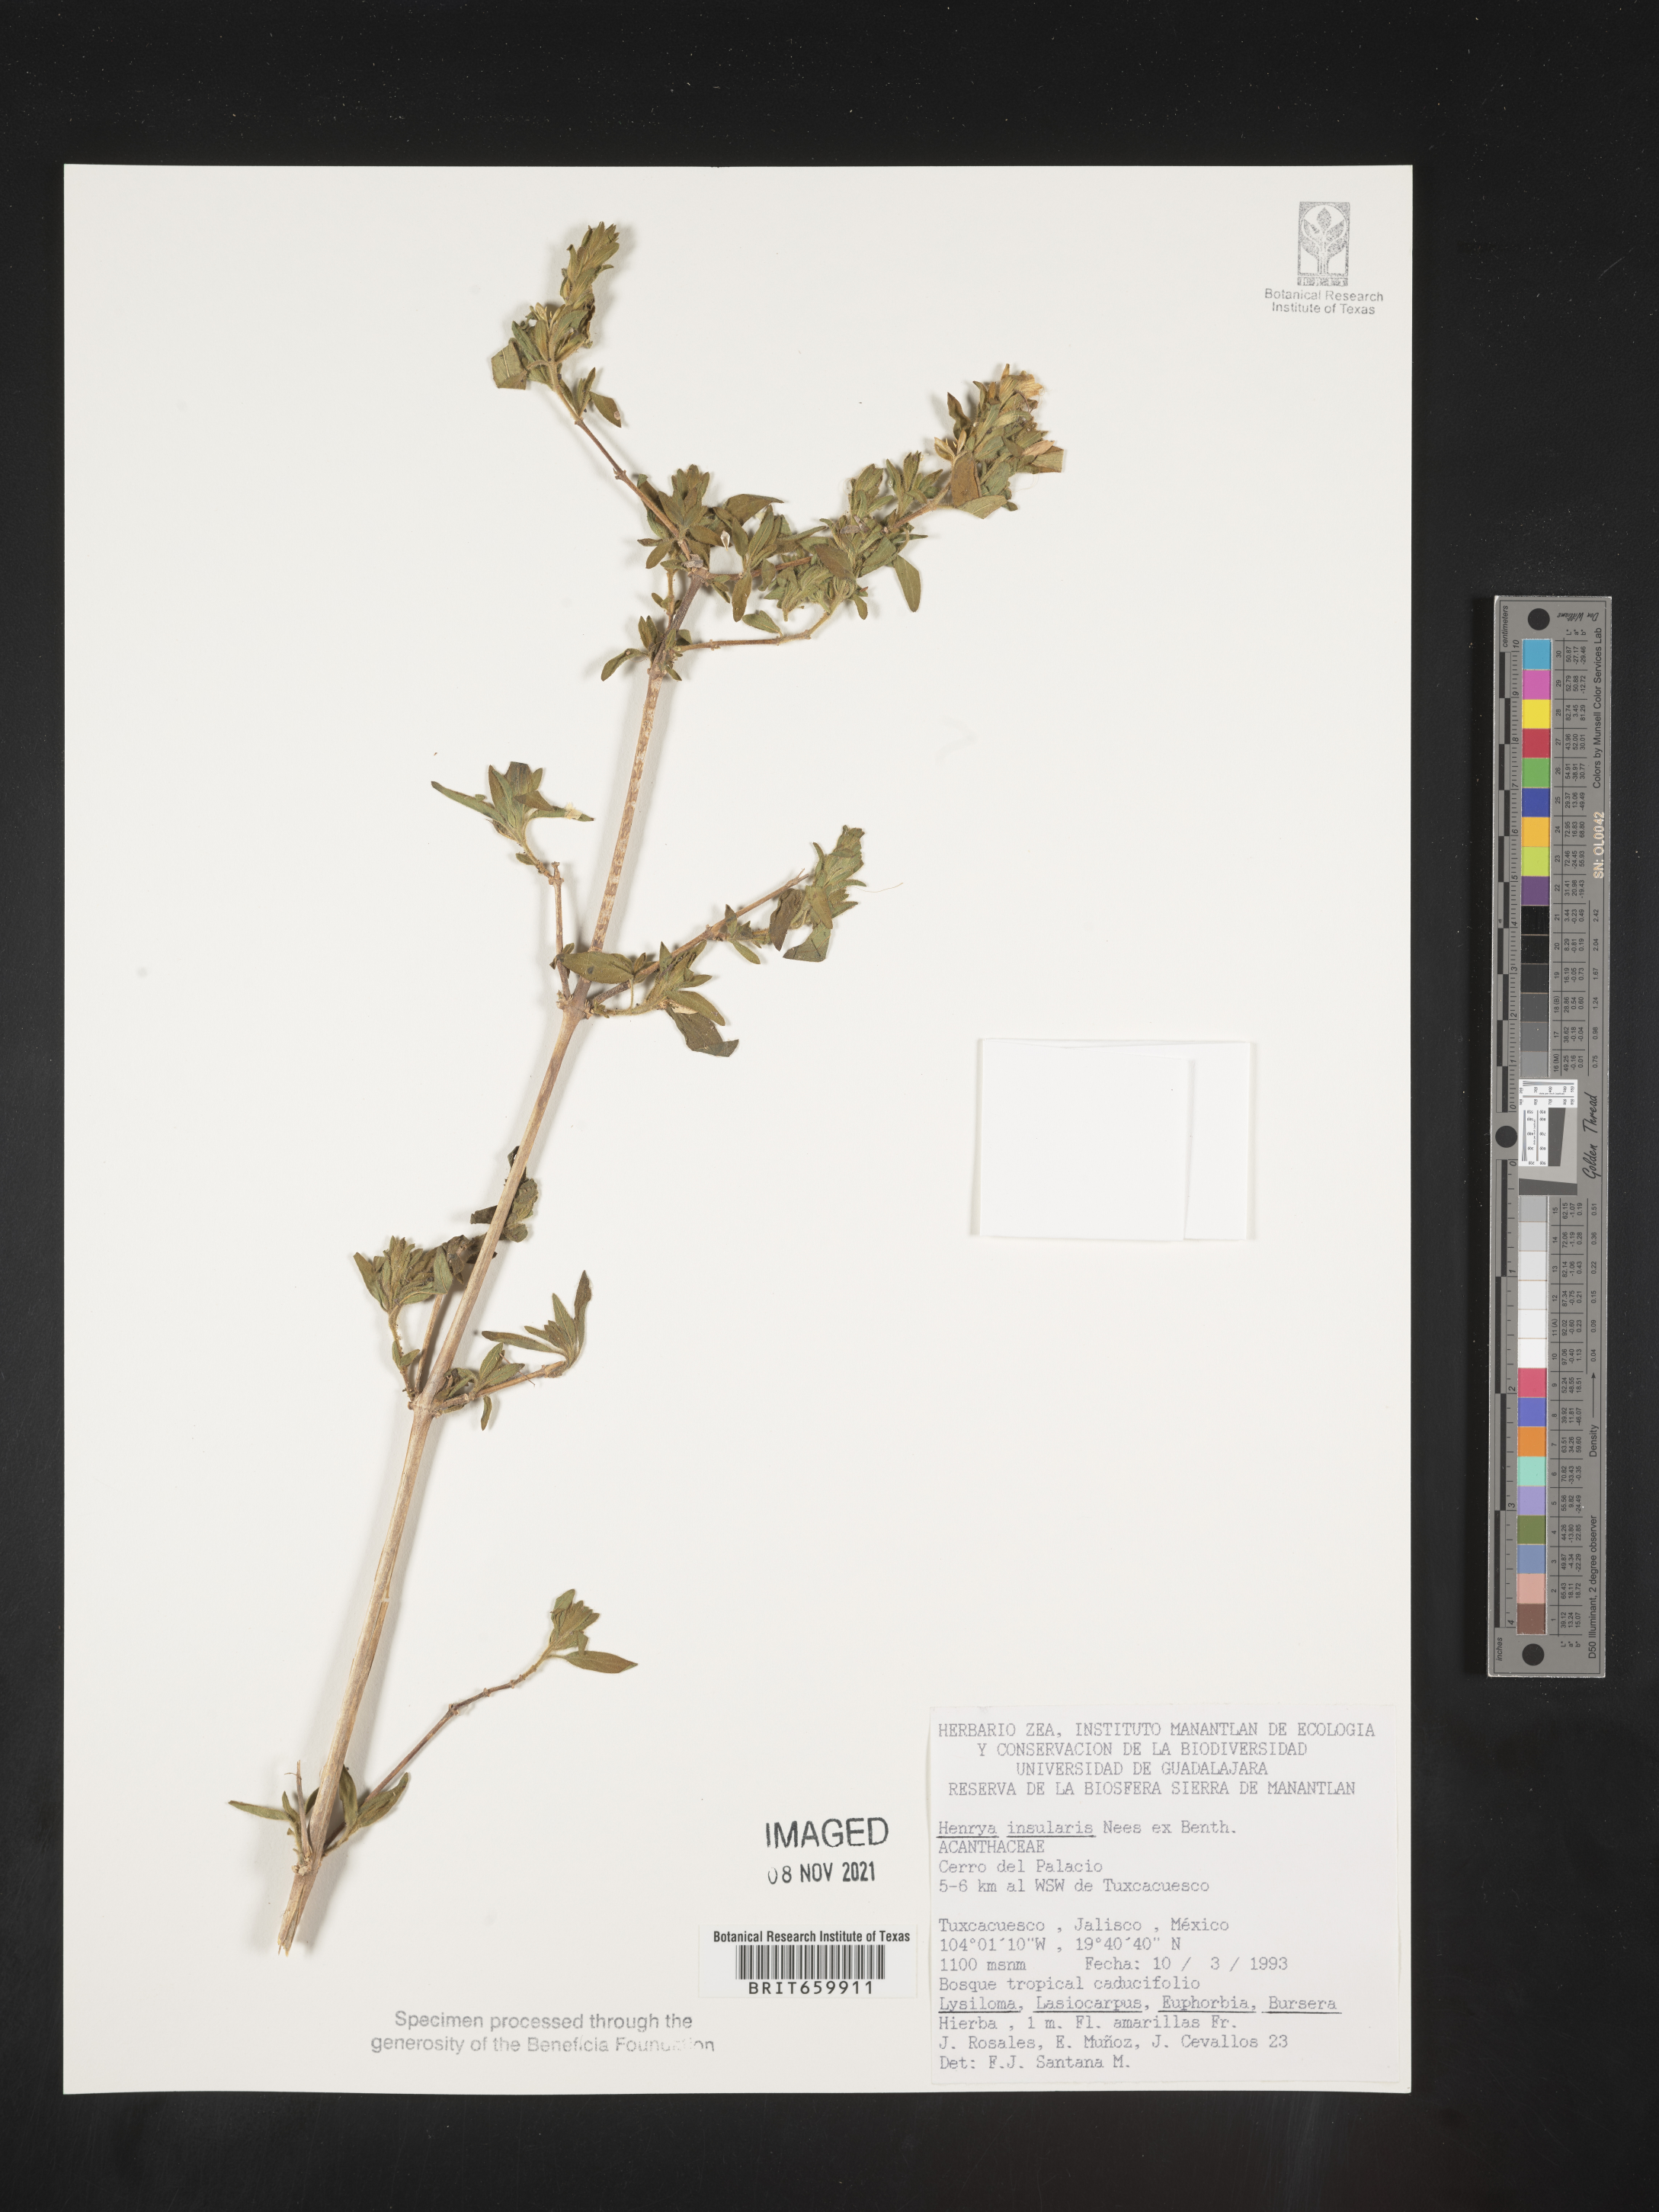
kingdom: Plantae
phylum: Tracheophyta
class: Magnoliopsida
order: Lamiales
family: Acanthaceae
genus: Henrya
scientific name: Henrya
